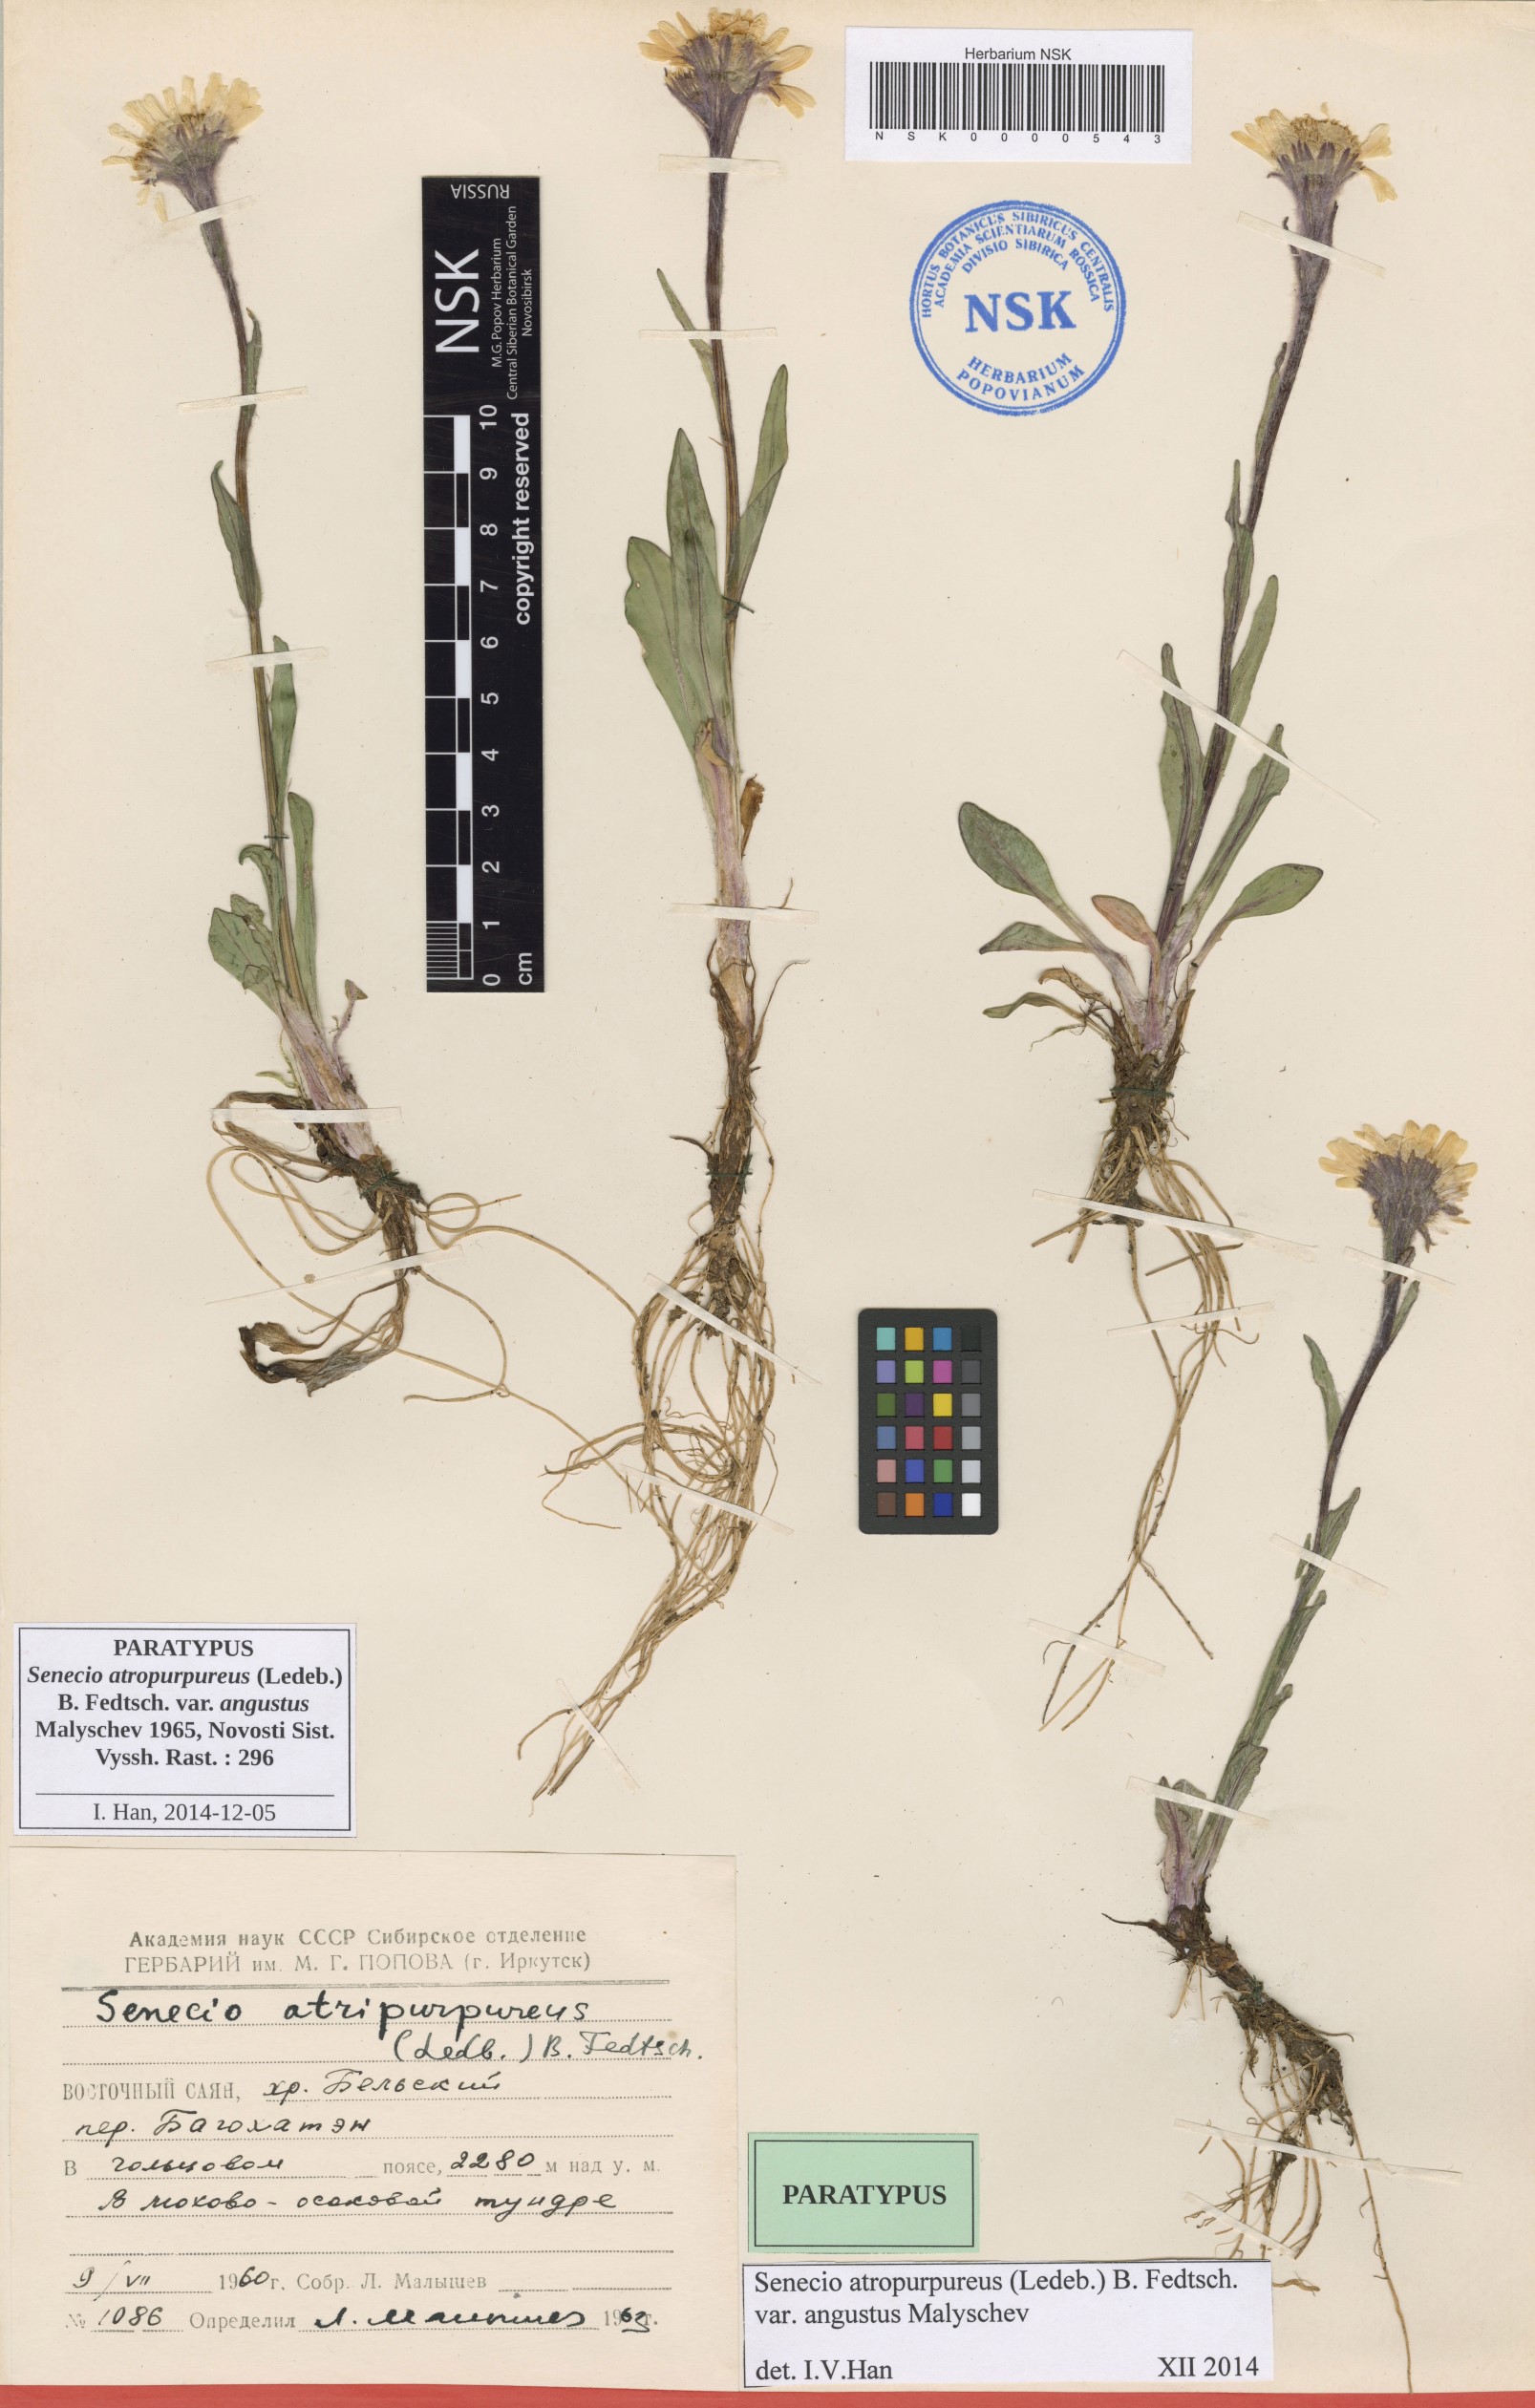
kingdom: Plantae
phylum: Tracheophyta
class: Magnoliopsida
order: Asterales
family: Asteraceae
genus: Tephroseris
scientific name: Tephroseris integrifolia
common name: Field fleawort
